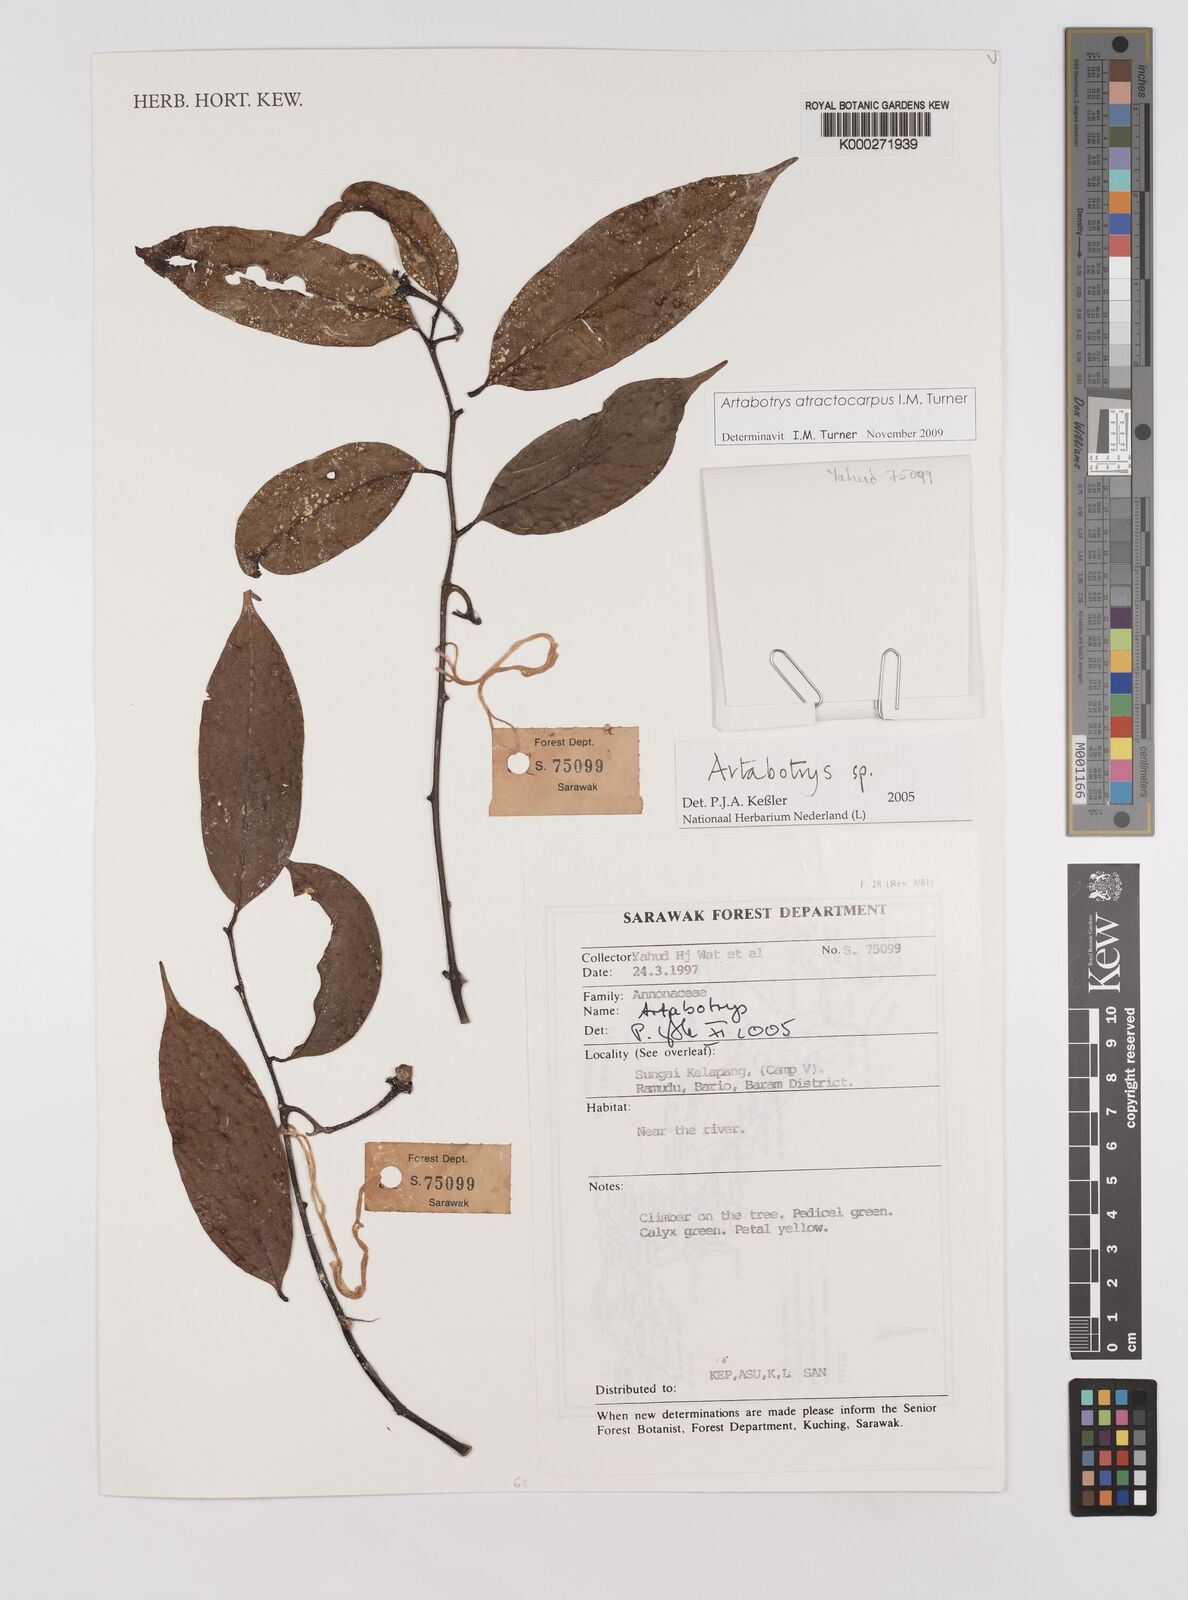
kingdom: Plantae
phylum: Tracheophyta
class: Magnoliopsida
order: Magnoliales
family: Annonaceae
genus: Artabotrys
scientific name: Artabotrys
